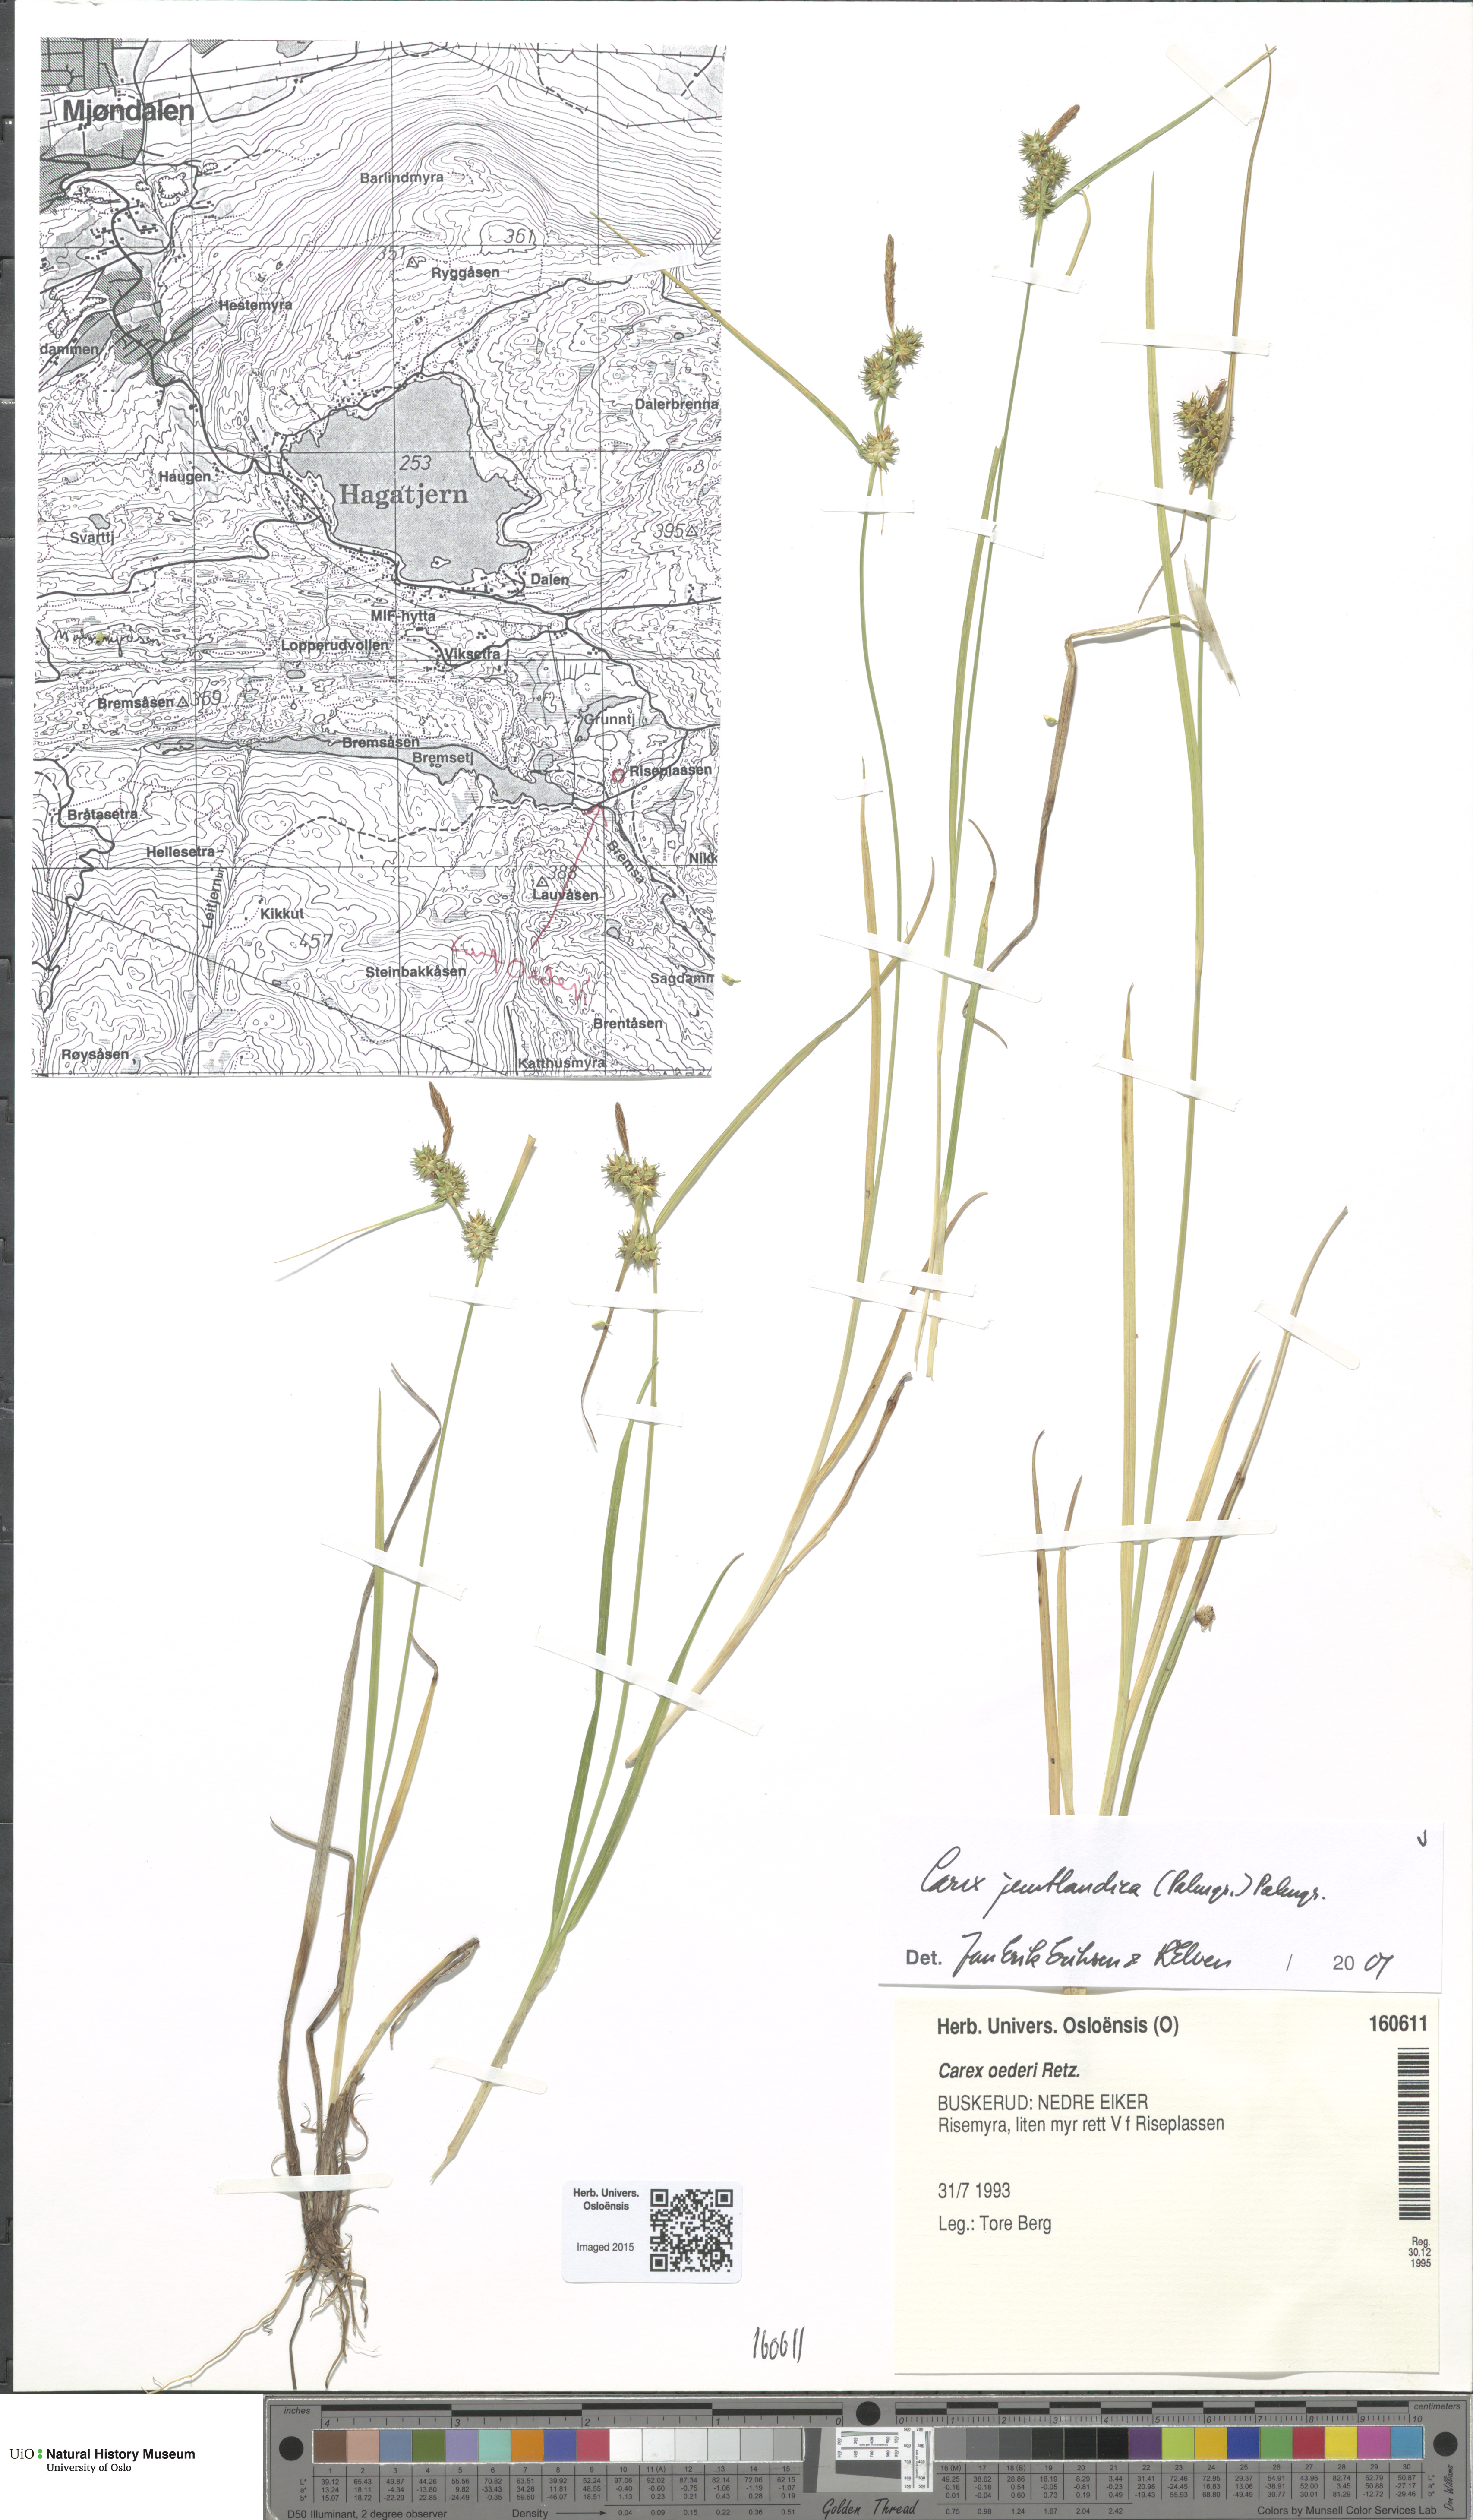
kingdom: Plantae
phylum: Tracheophyta
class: Liliopsida
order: Poales
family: Cyperaceae
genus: Carex
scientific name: Carex lepidocarpa
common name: Long-stalked yellow-sedge
